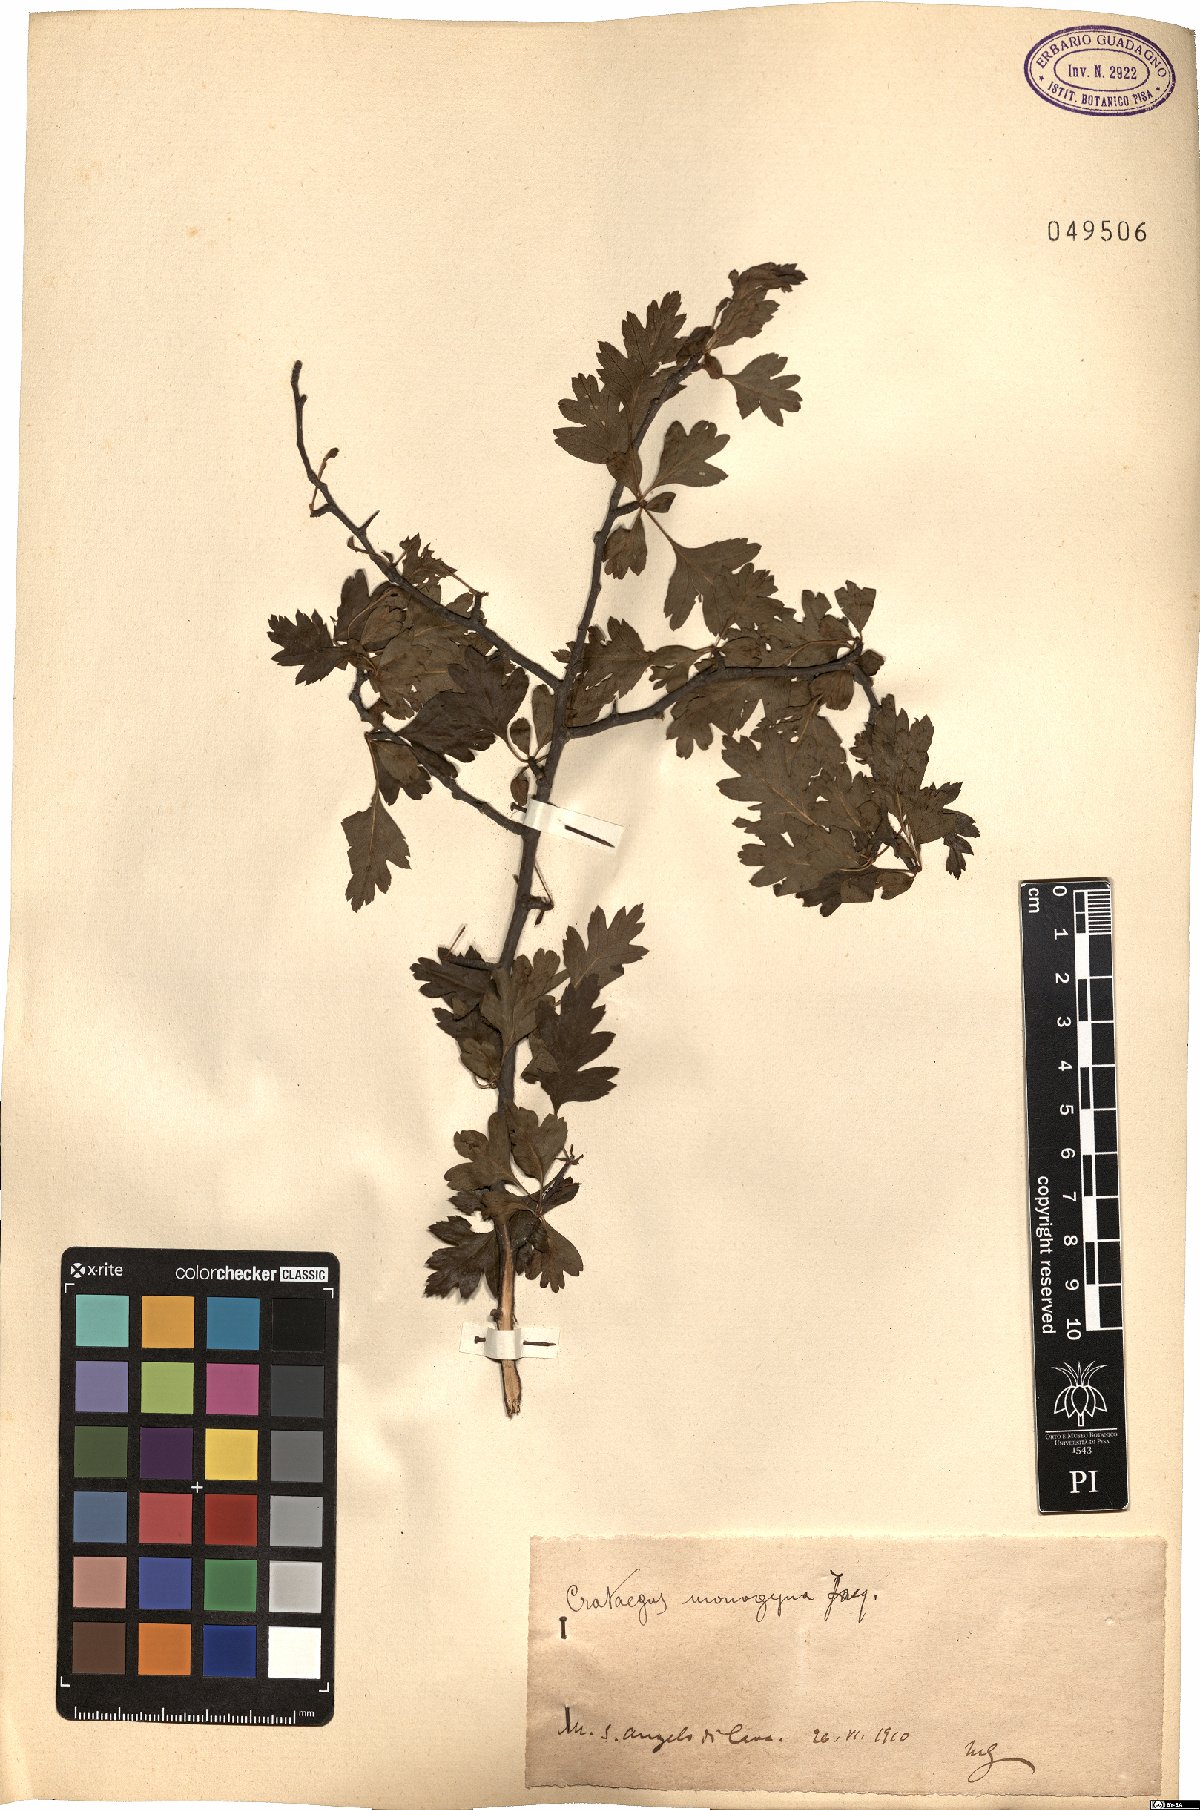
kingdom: Plantae
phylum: Tracheophyta
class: Magnoliopsida
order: Rosales
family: Rosaceae
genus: Crataegus
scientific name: Crataegus monogyna
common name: Hawthorn
